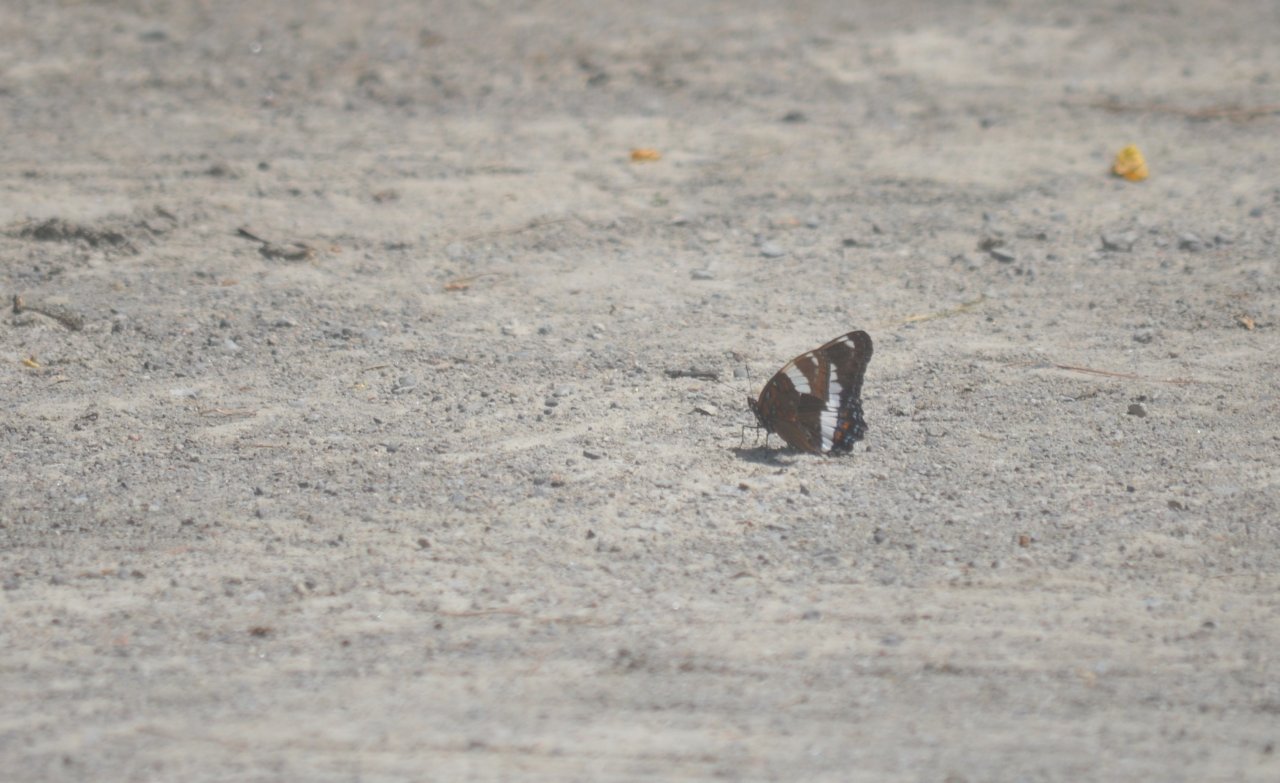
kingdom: Animalia
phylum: Arthropoda
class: Insecta
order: Lepidoptera
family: Nymphalidae
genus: Limenitis
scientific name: Limenitis arthemis
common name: Red-spotted Admiral
